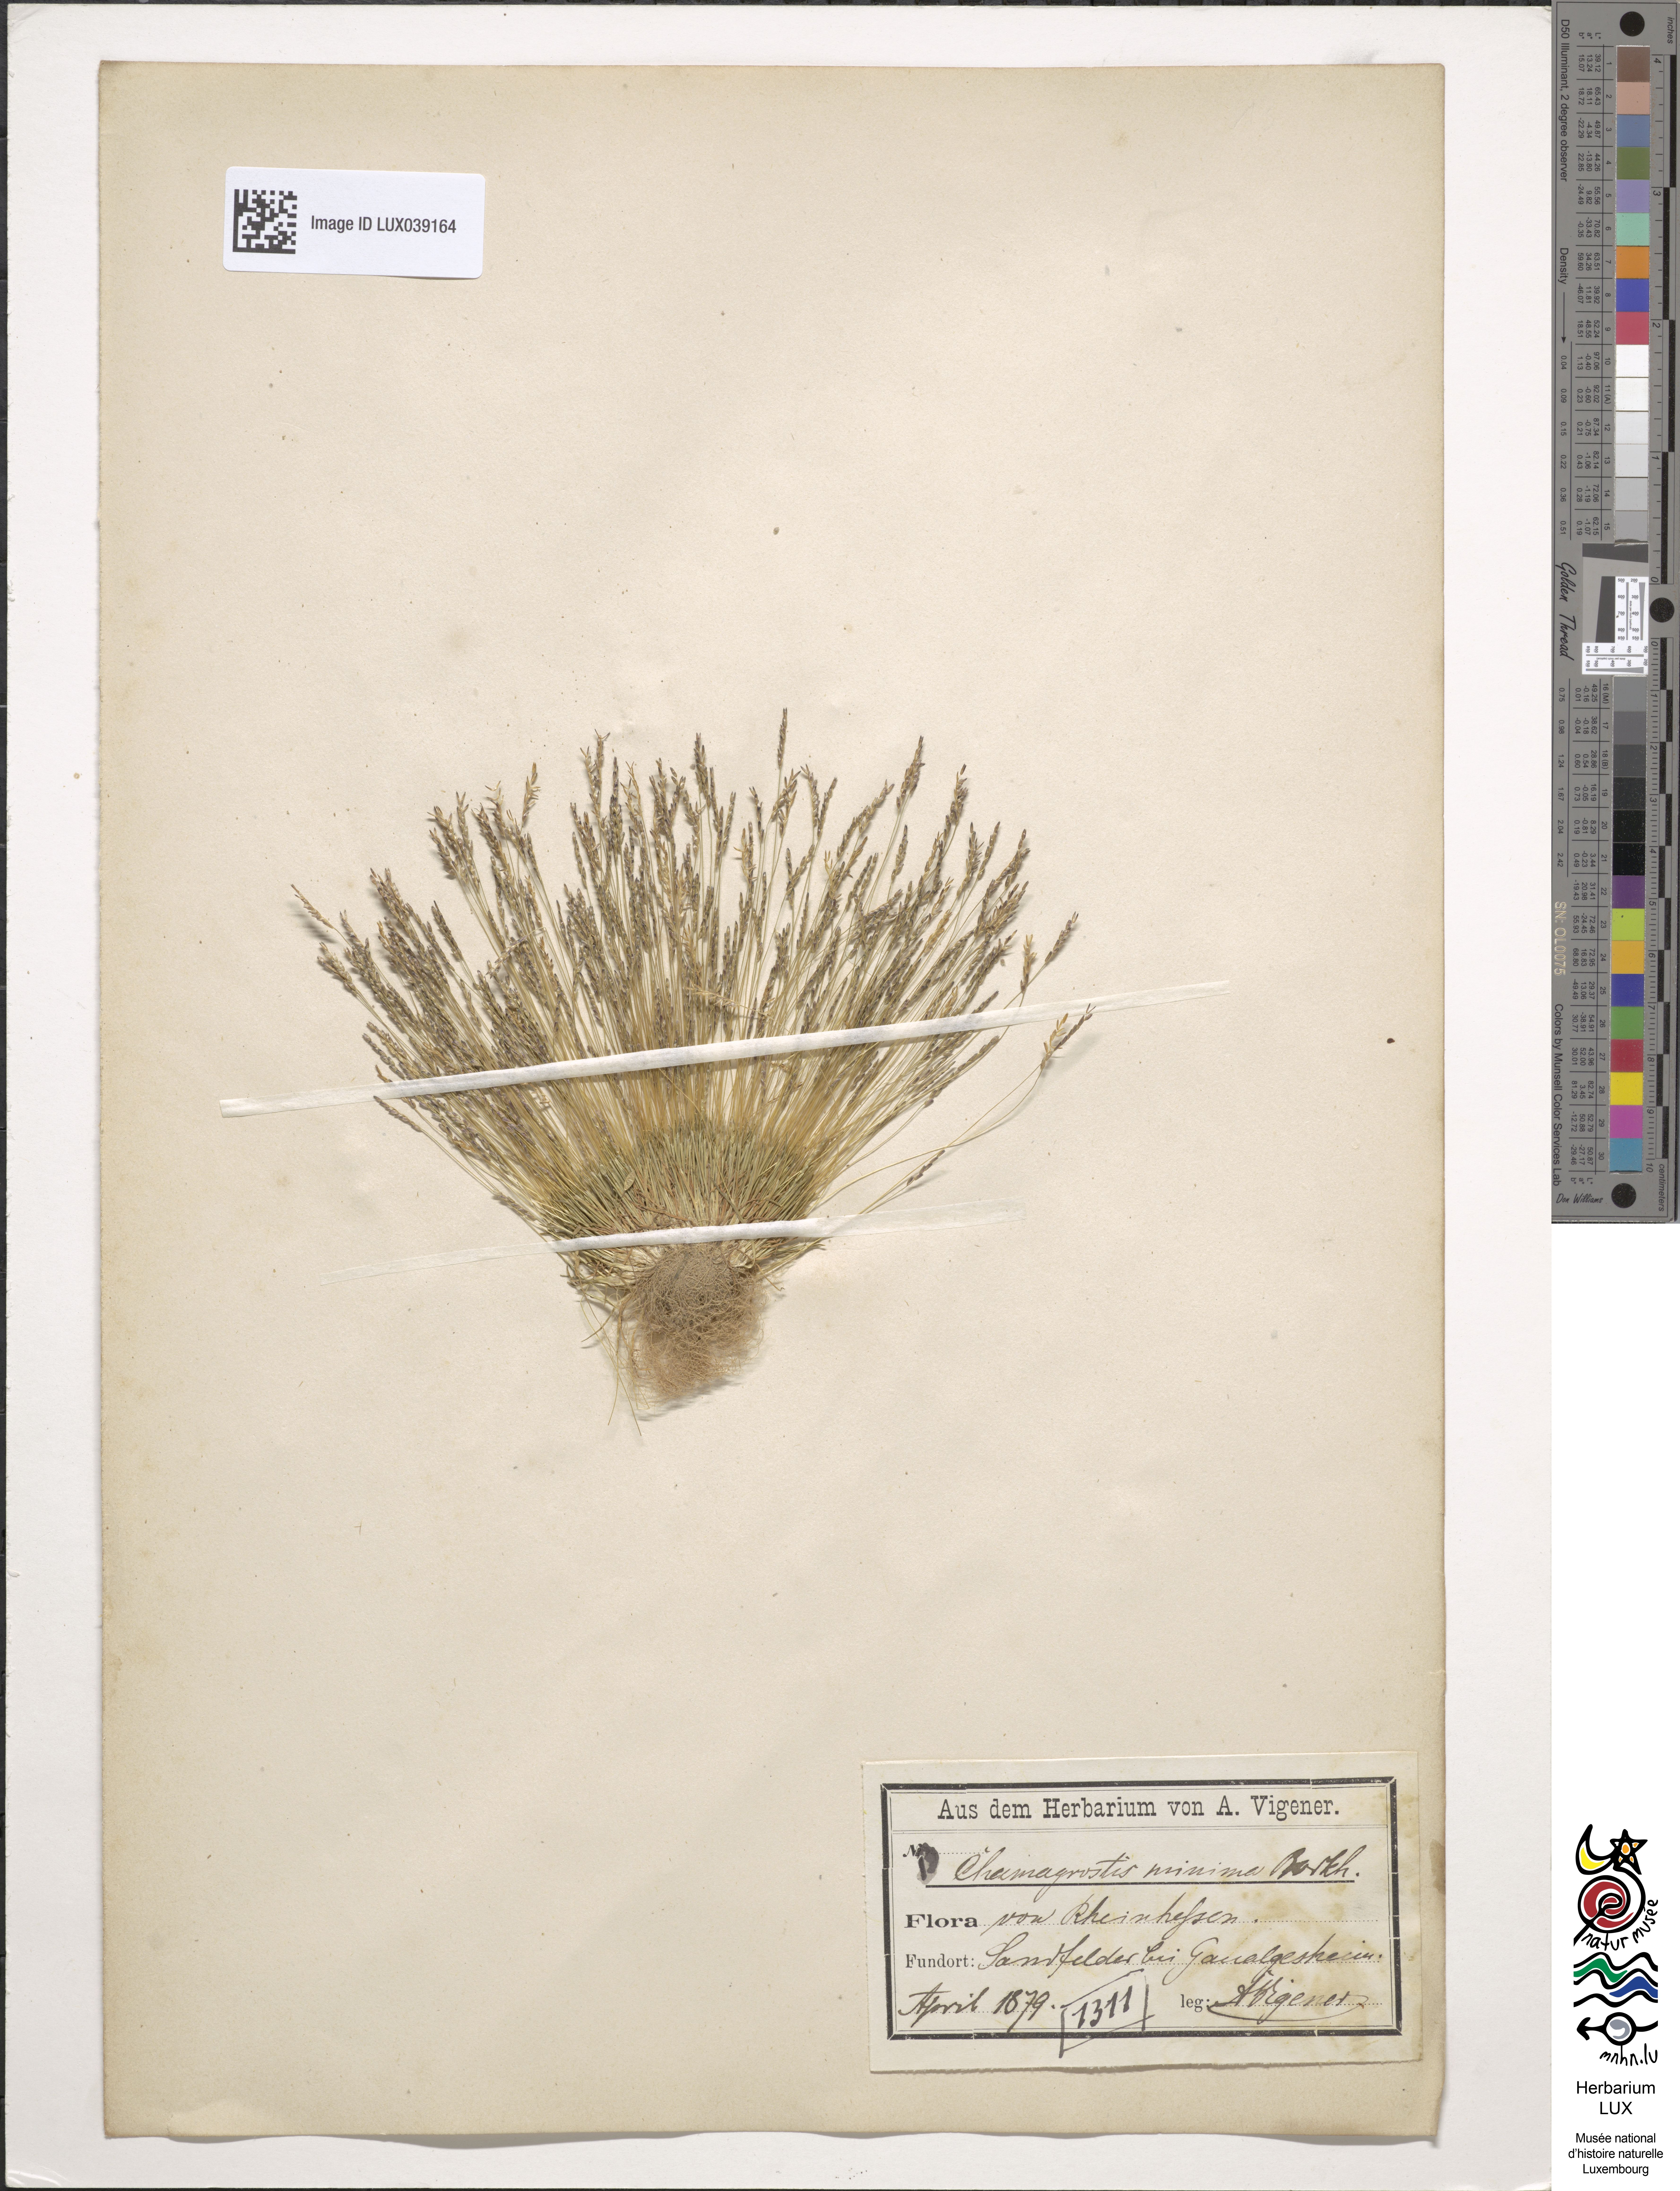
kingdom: Plantae
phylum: Tracheophyta
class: Liliopsida
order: Poales
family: Poaceae
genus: Mibora
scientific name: Mibora minima
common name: Early sand-grass
